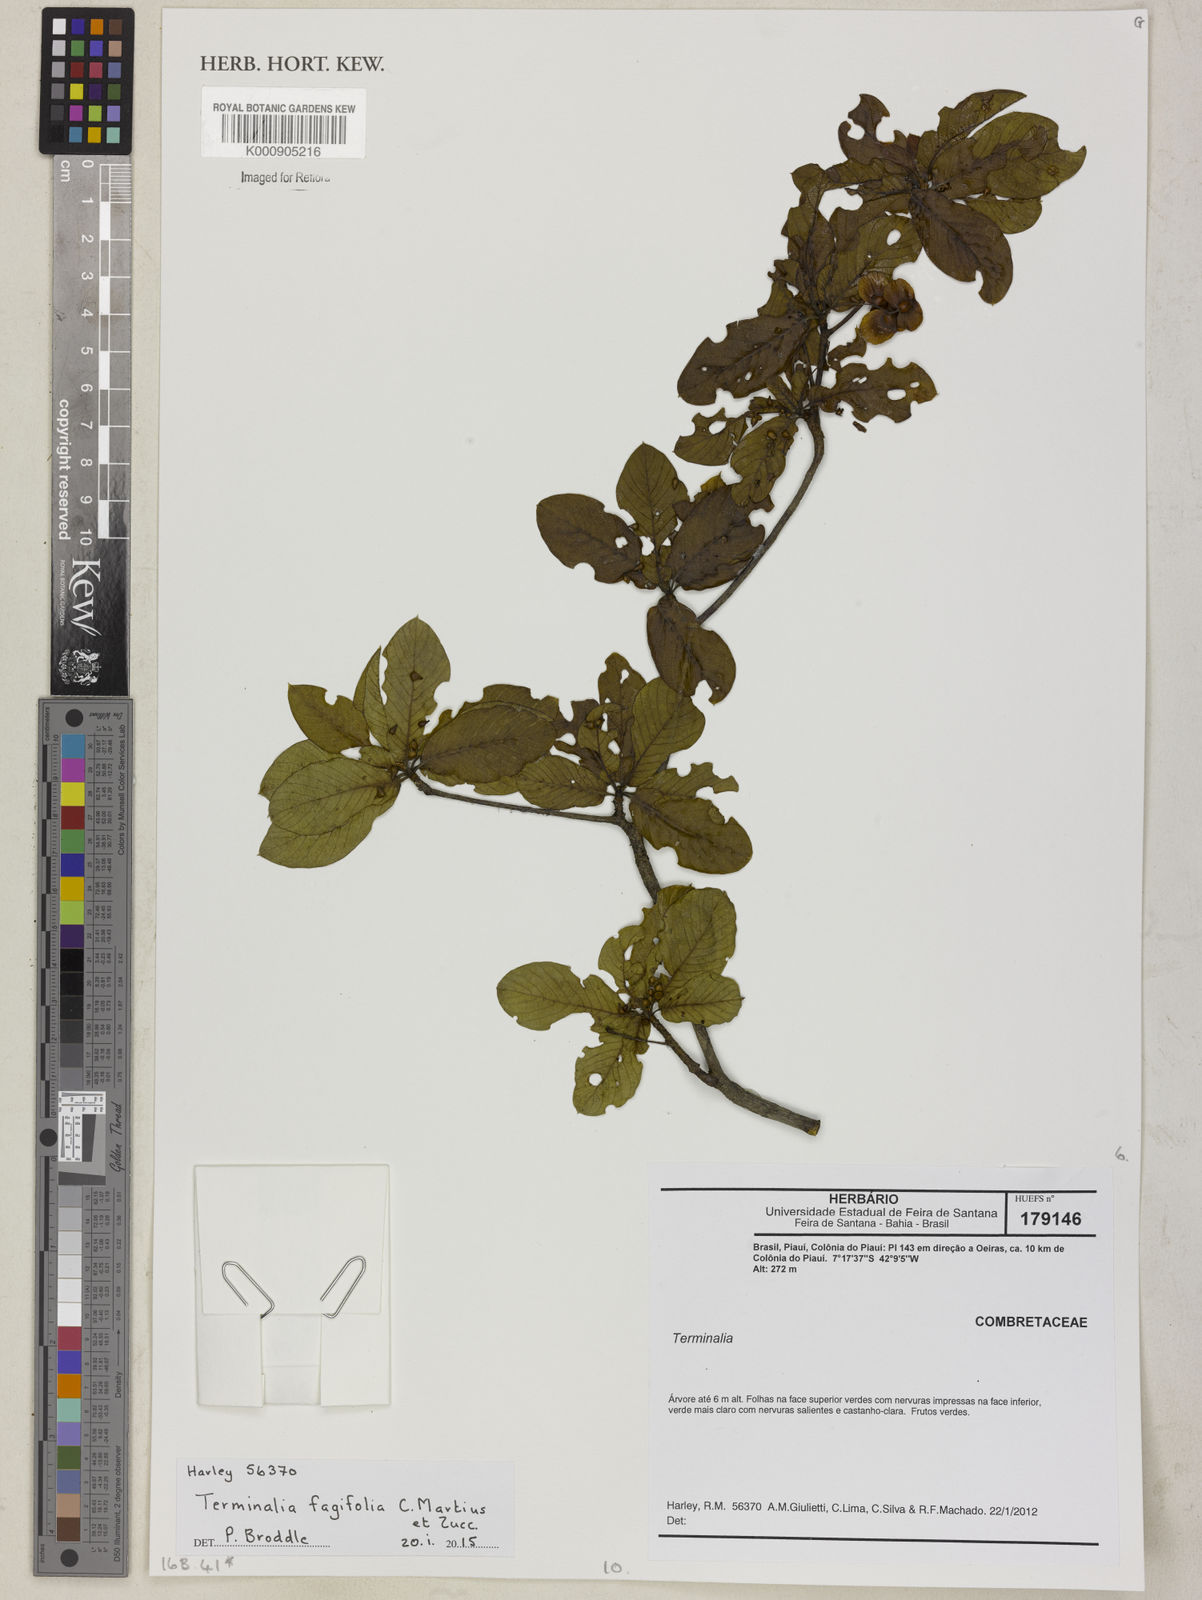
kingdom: Plantae
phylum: Tracheophyta
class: Magnoliopsida
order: Myrtales
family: Combretaceae
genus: Terminalia
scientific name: Terminalia fagifolia
